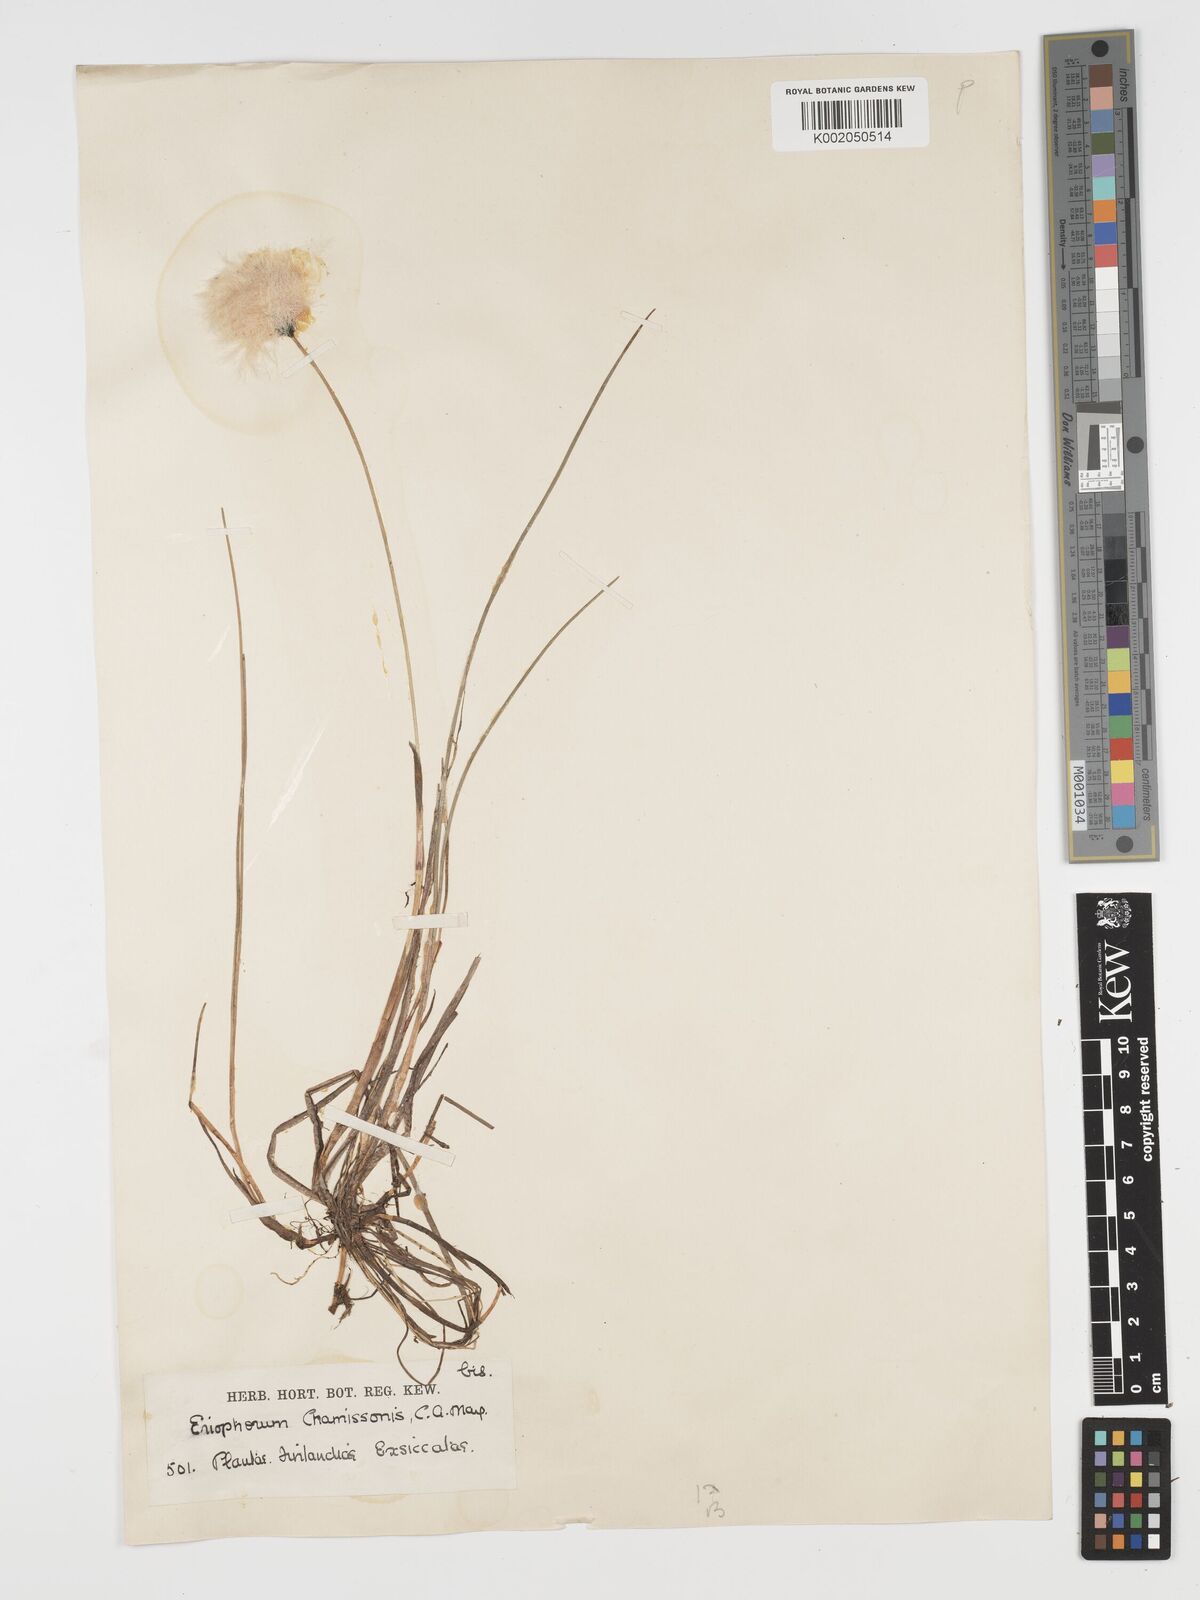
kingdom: Plantae
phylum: Tracheophyta
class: Liliopsida
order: Poales
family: Cyperaceae
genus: Eriophorum
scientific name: Eriophorum chamissonis
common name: Chamisso's cottongrass
